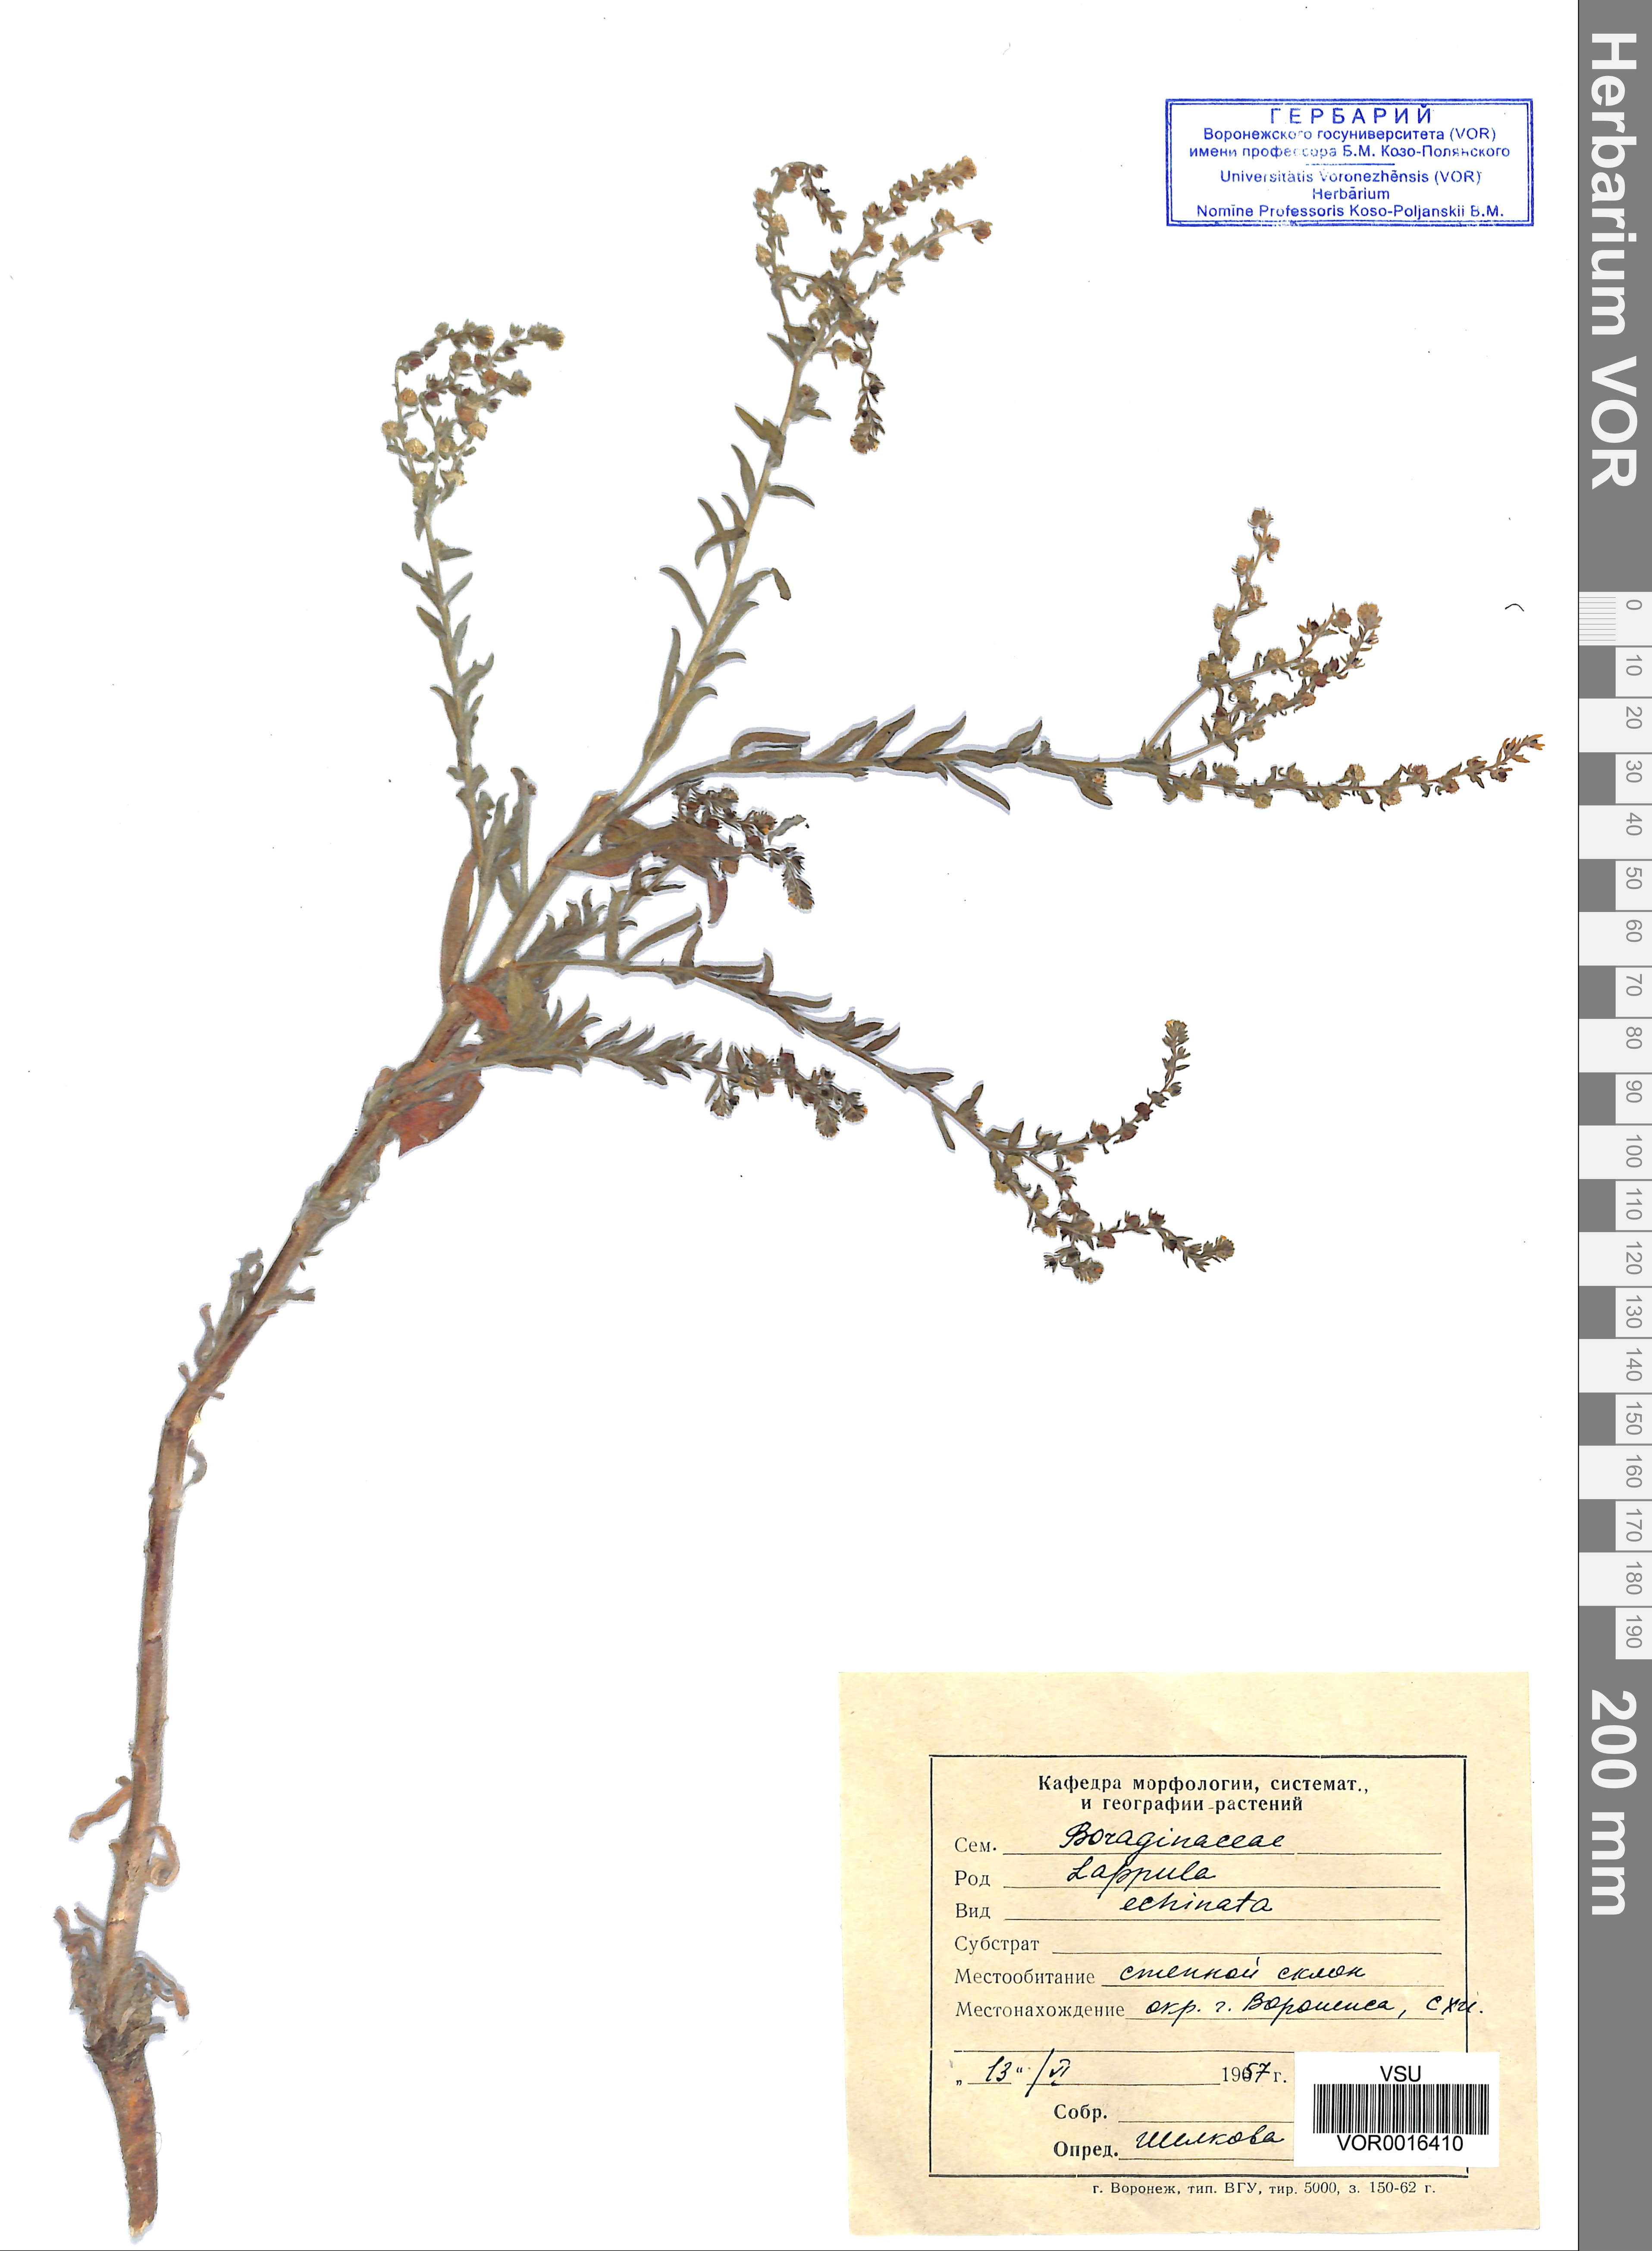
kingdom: Plantae
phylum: Tracheophyta
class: Magnoliopsida
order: Boraginales
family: Boraginaceae
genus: Lappula
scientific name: Lappula squarrosa
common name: European stickseed
